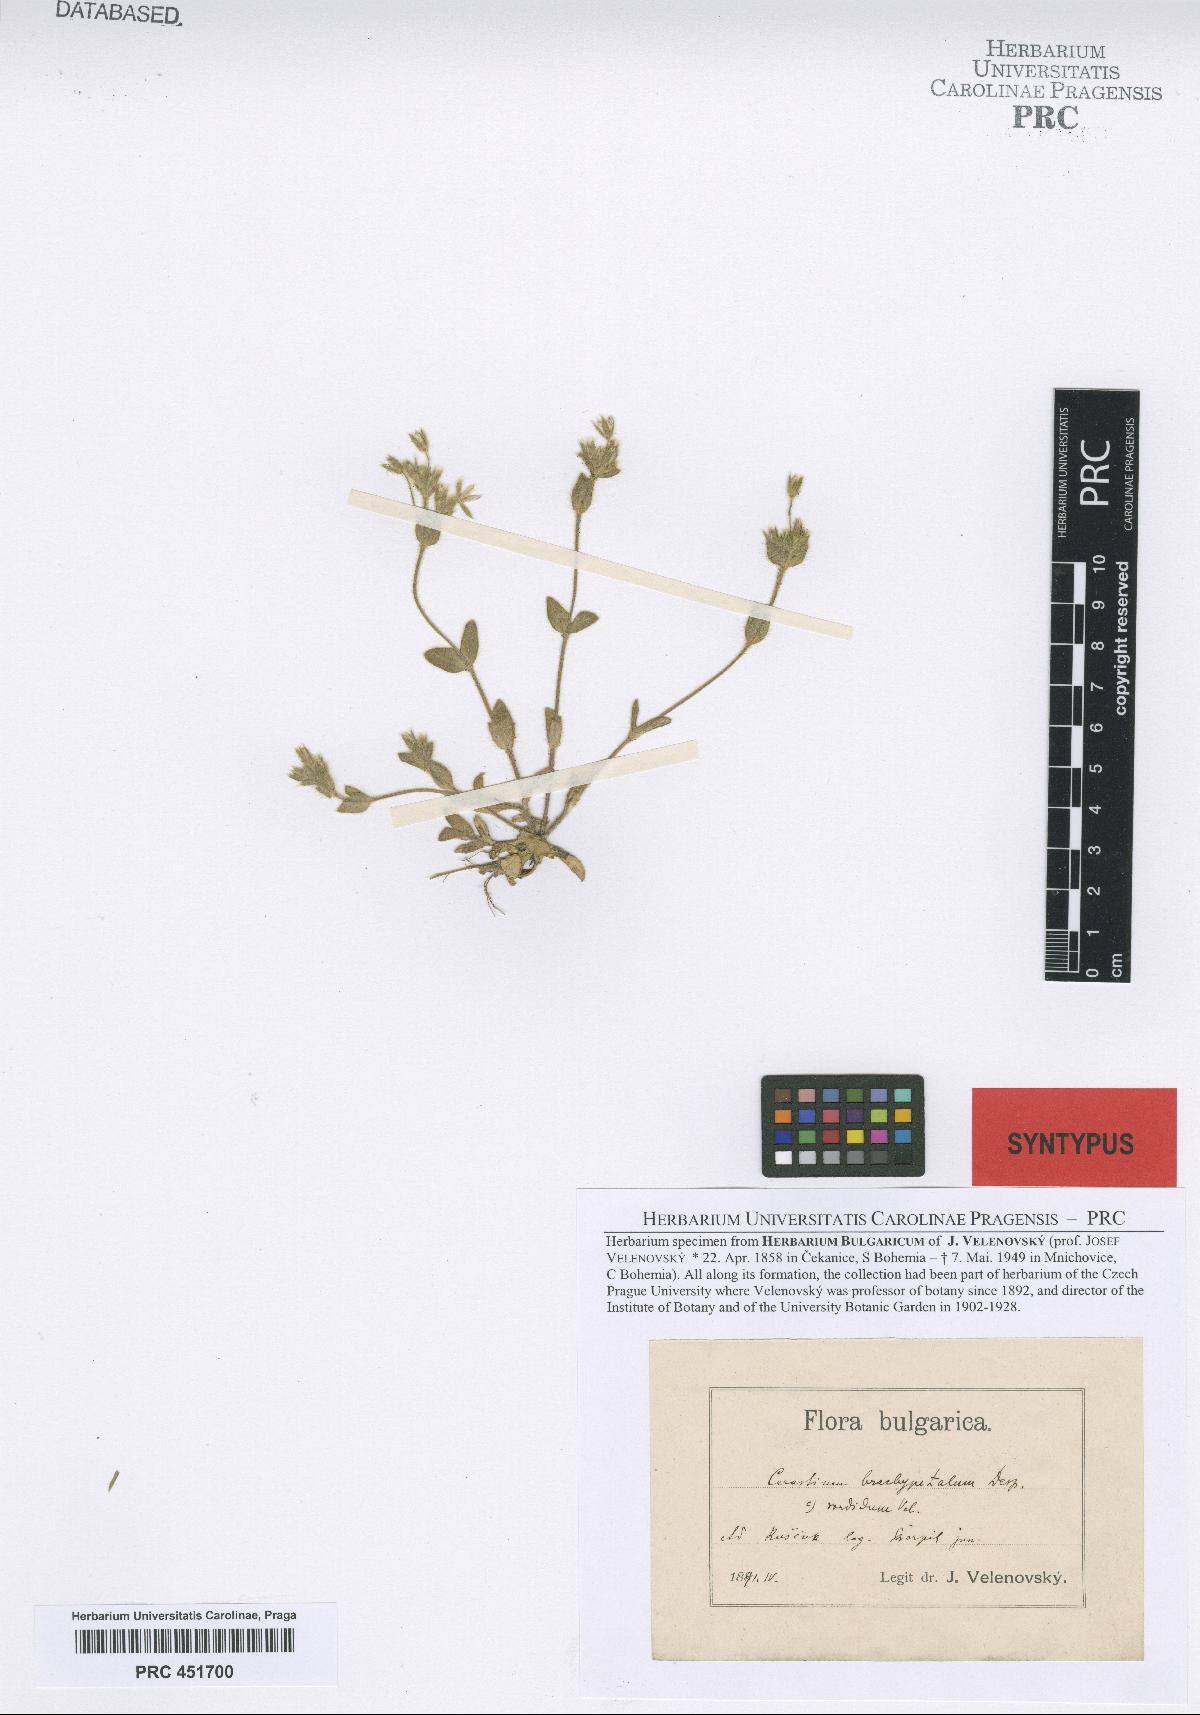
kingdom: Plantae
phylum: Tracheophyta
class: Magnoliopsida
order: Caryophyllales
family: Caryophyllaceae
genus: Cerastium
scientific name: Cerastium brachypetalum
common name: Grey mouse-ear
